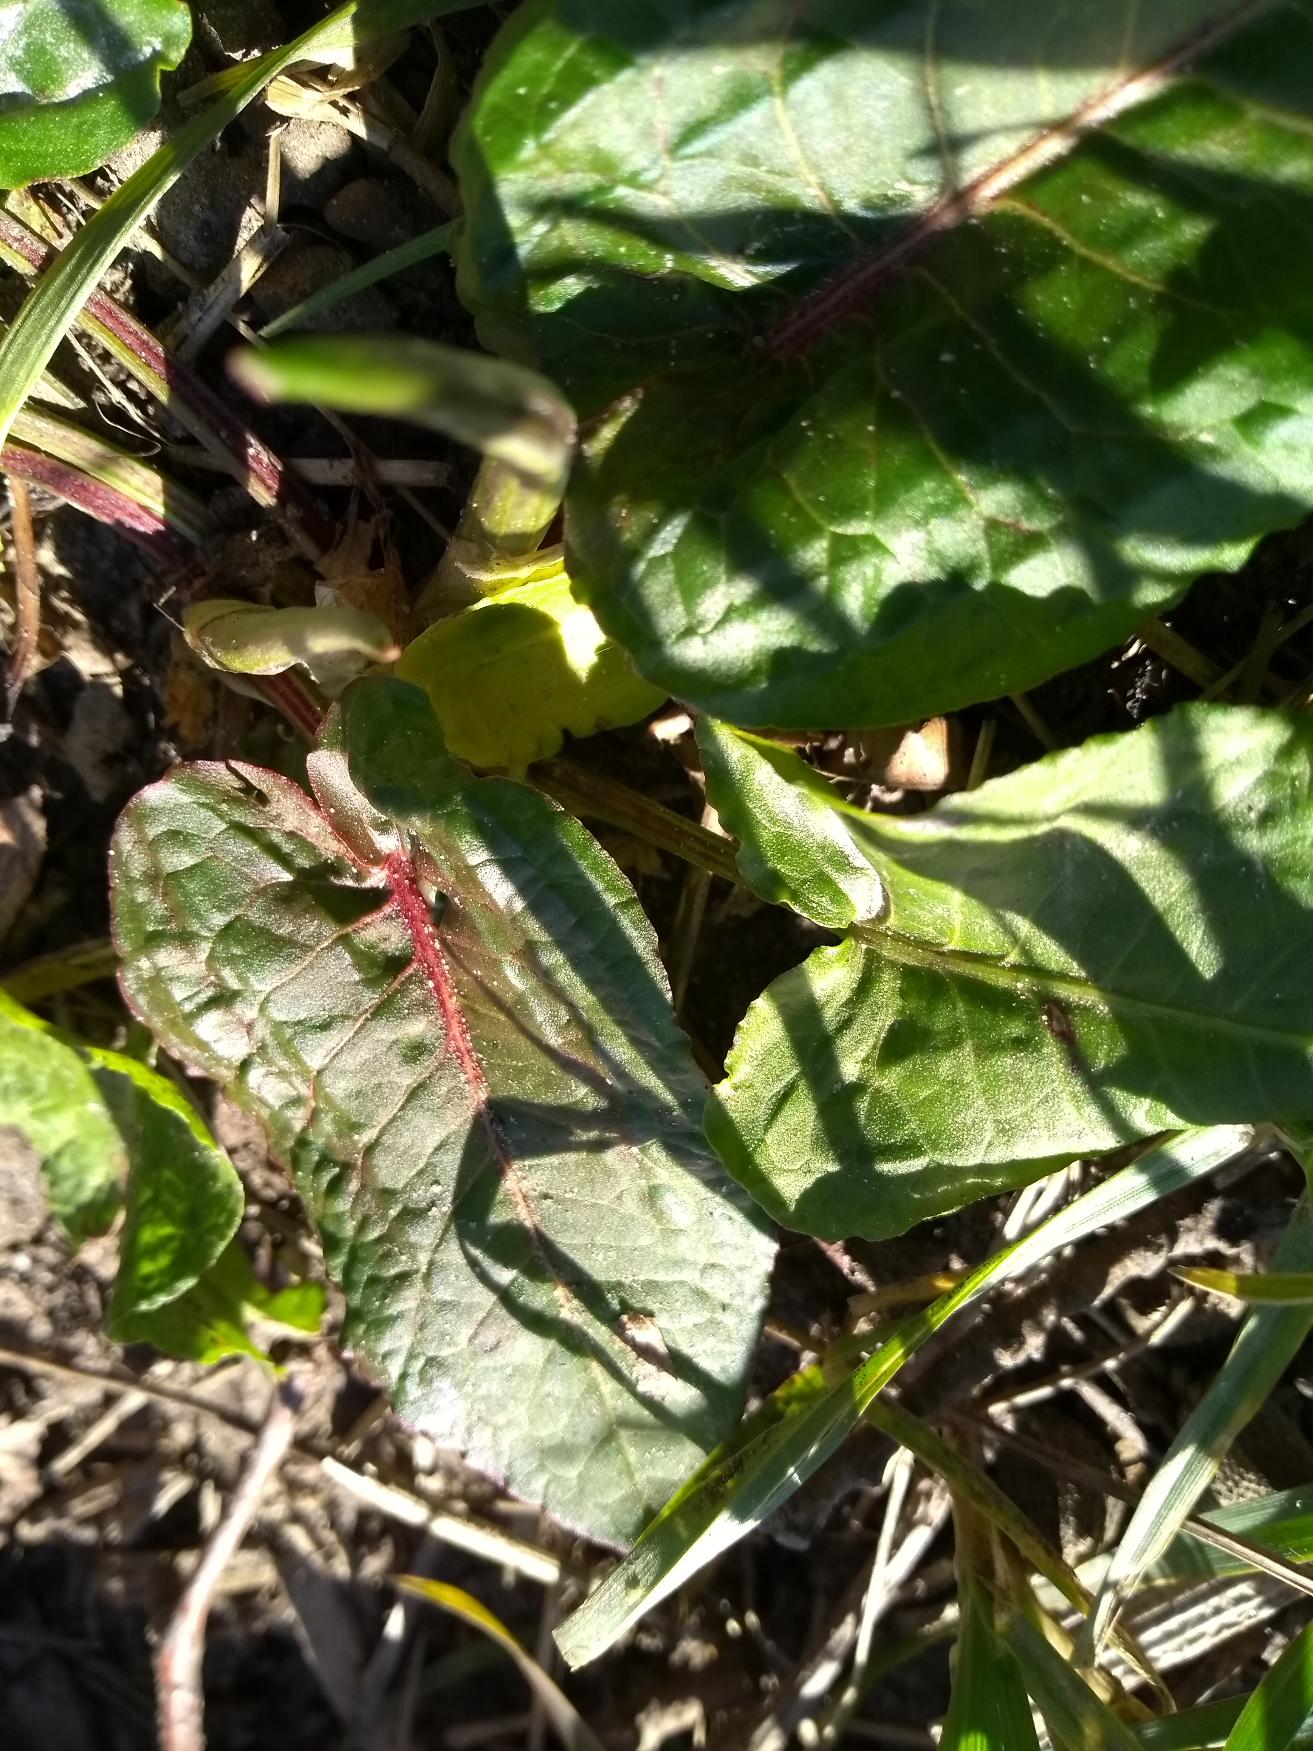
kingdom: Plantae
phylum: Tracheophyta
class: Magnoliopsida
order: Caryophyllales
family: Polygonaceae
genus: Rumex
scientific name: Rumex obtusifolius
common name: Butbladet skræppe
